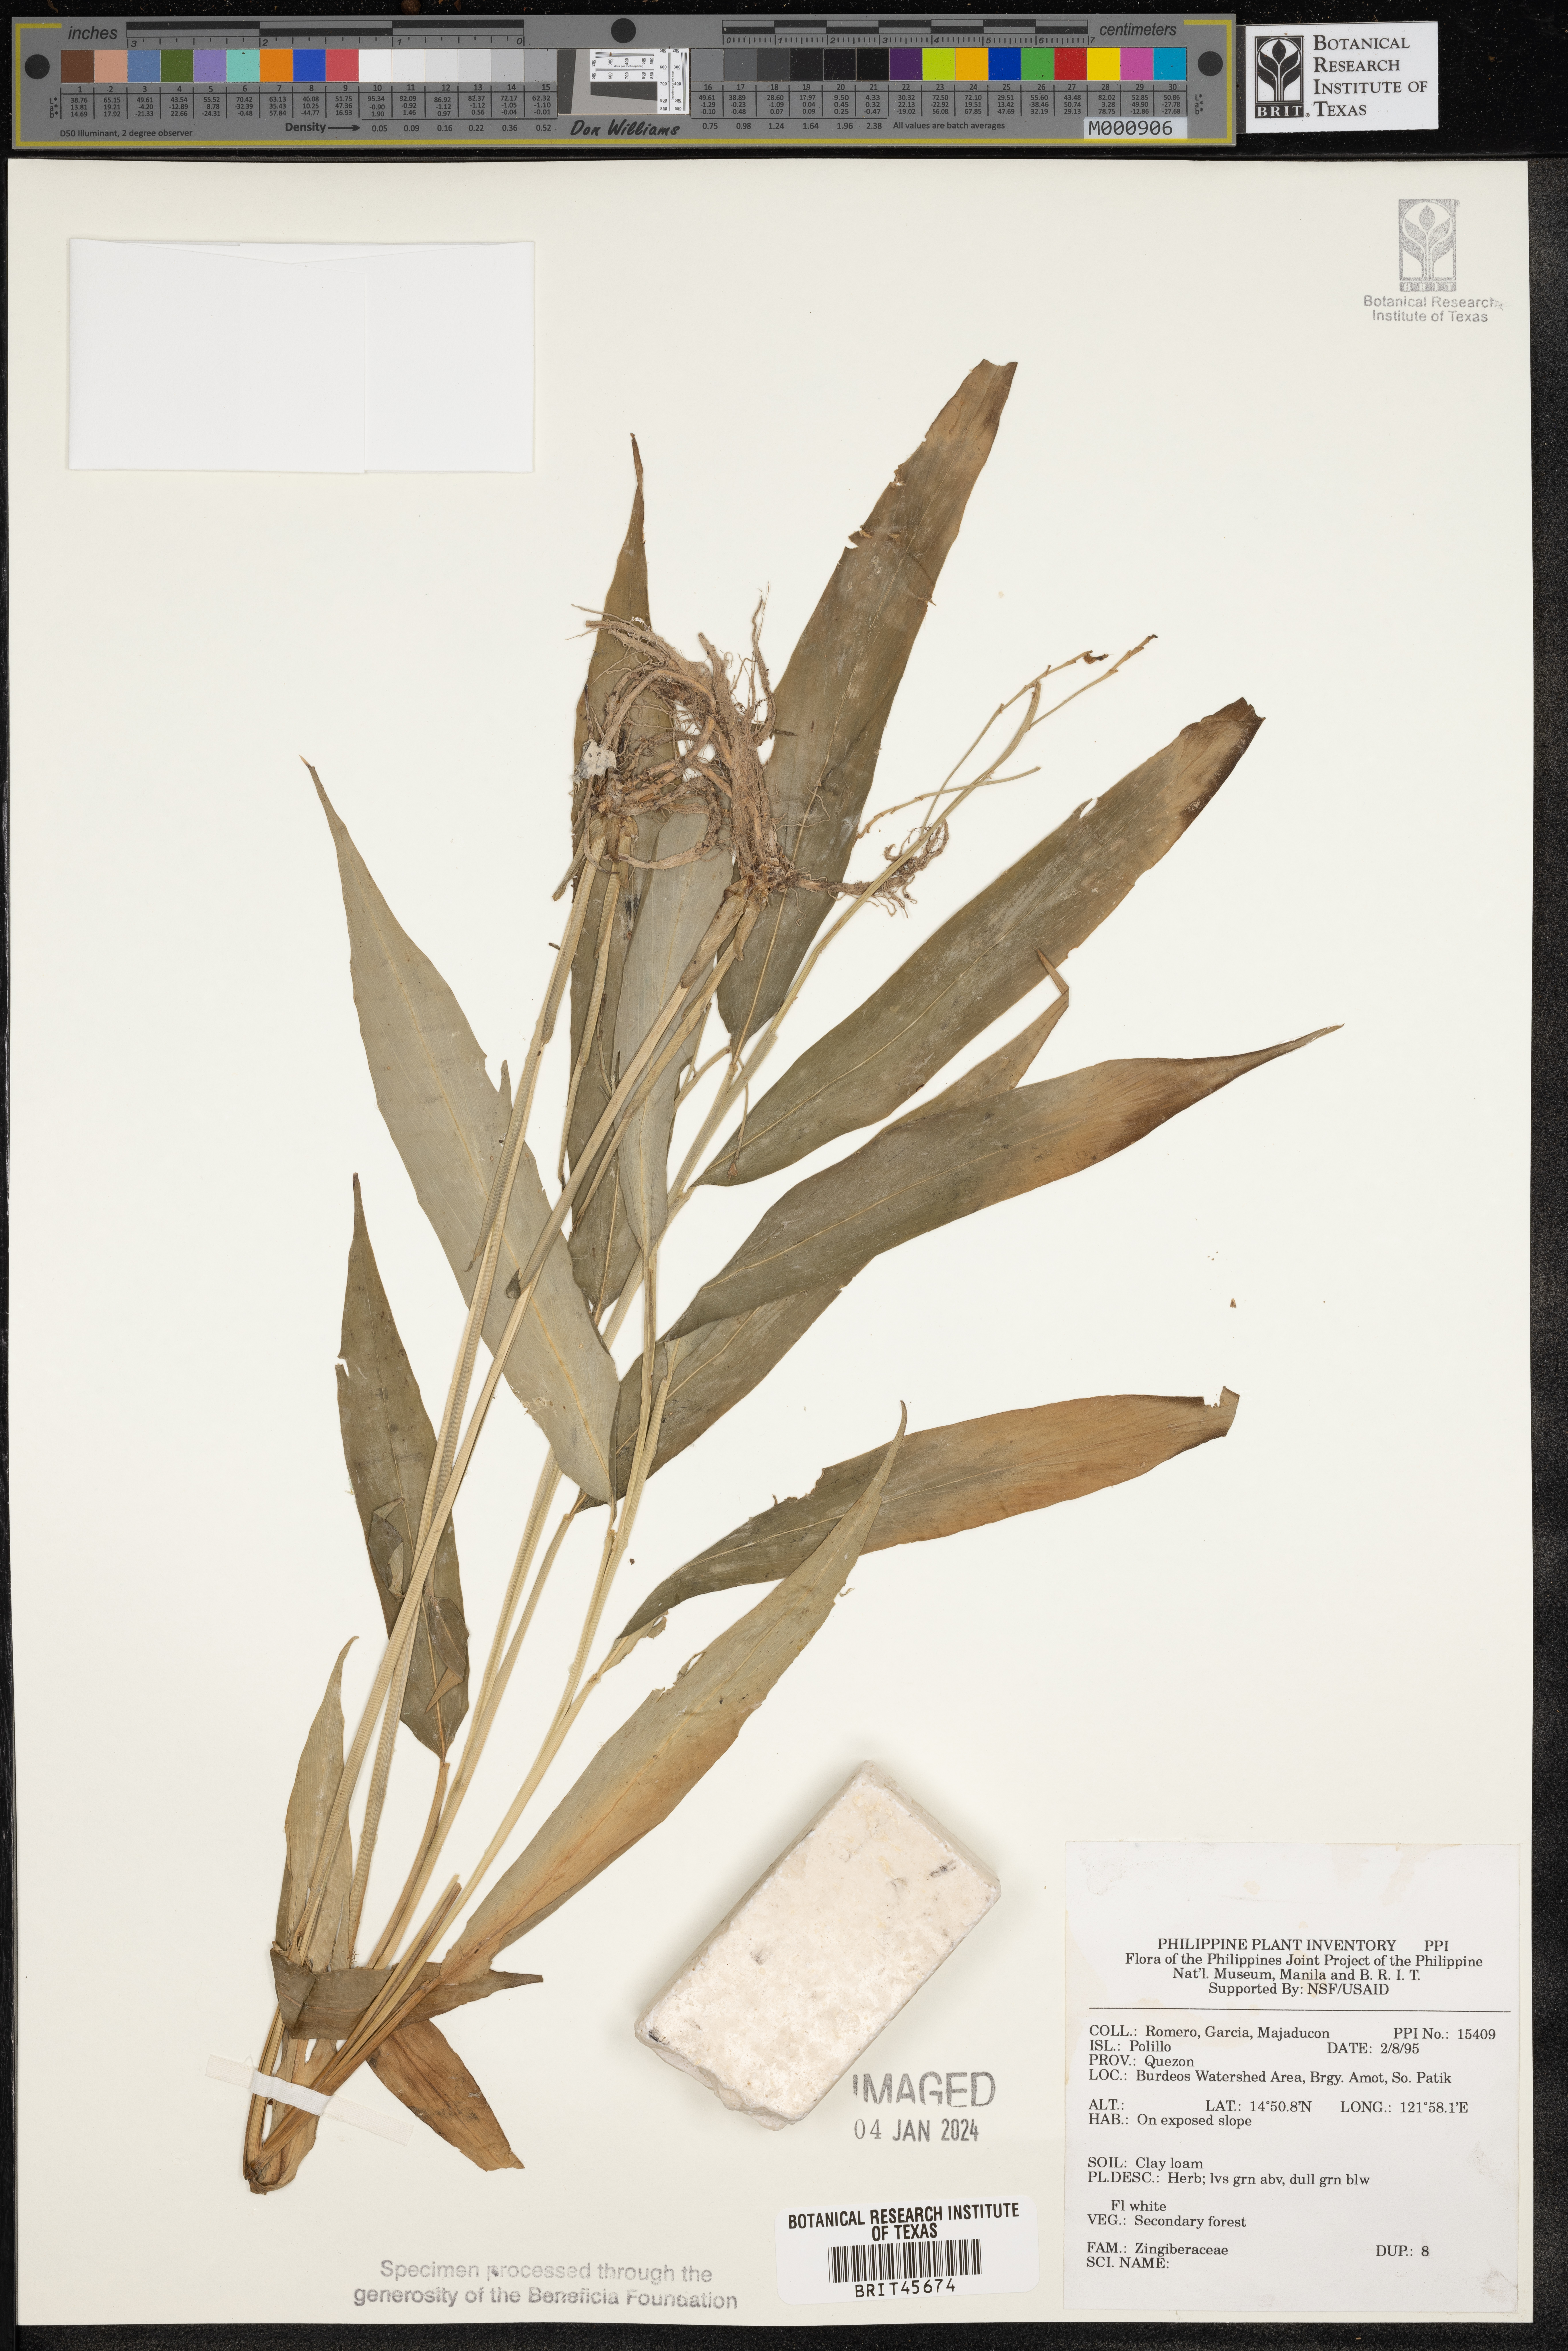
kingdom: Plantae
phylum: Tracheophyta
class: Liliopsida
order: Zingiberales
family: Zingiberaceae
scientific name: Zingiberaceae
